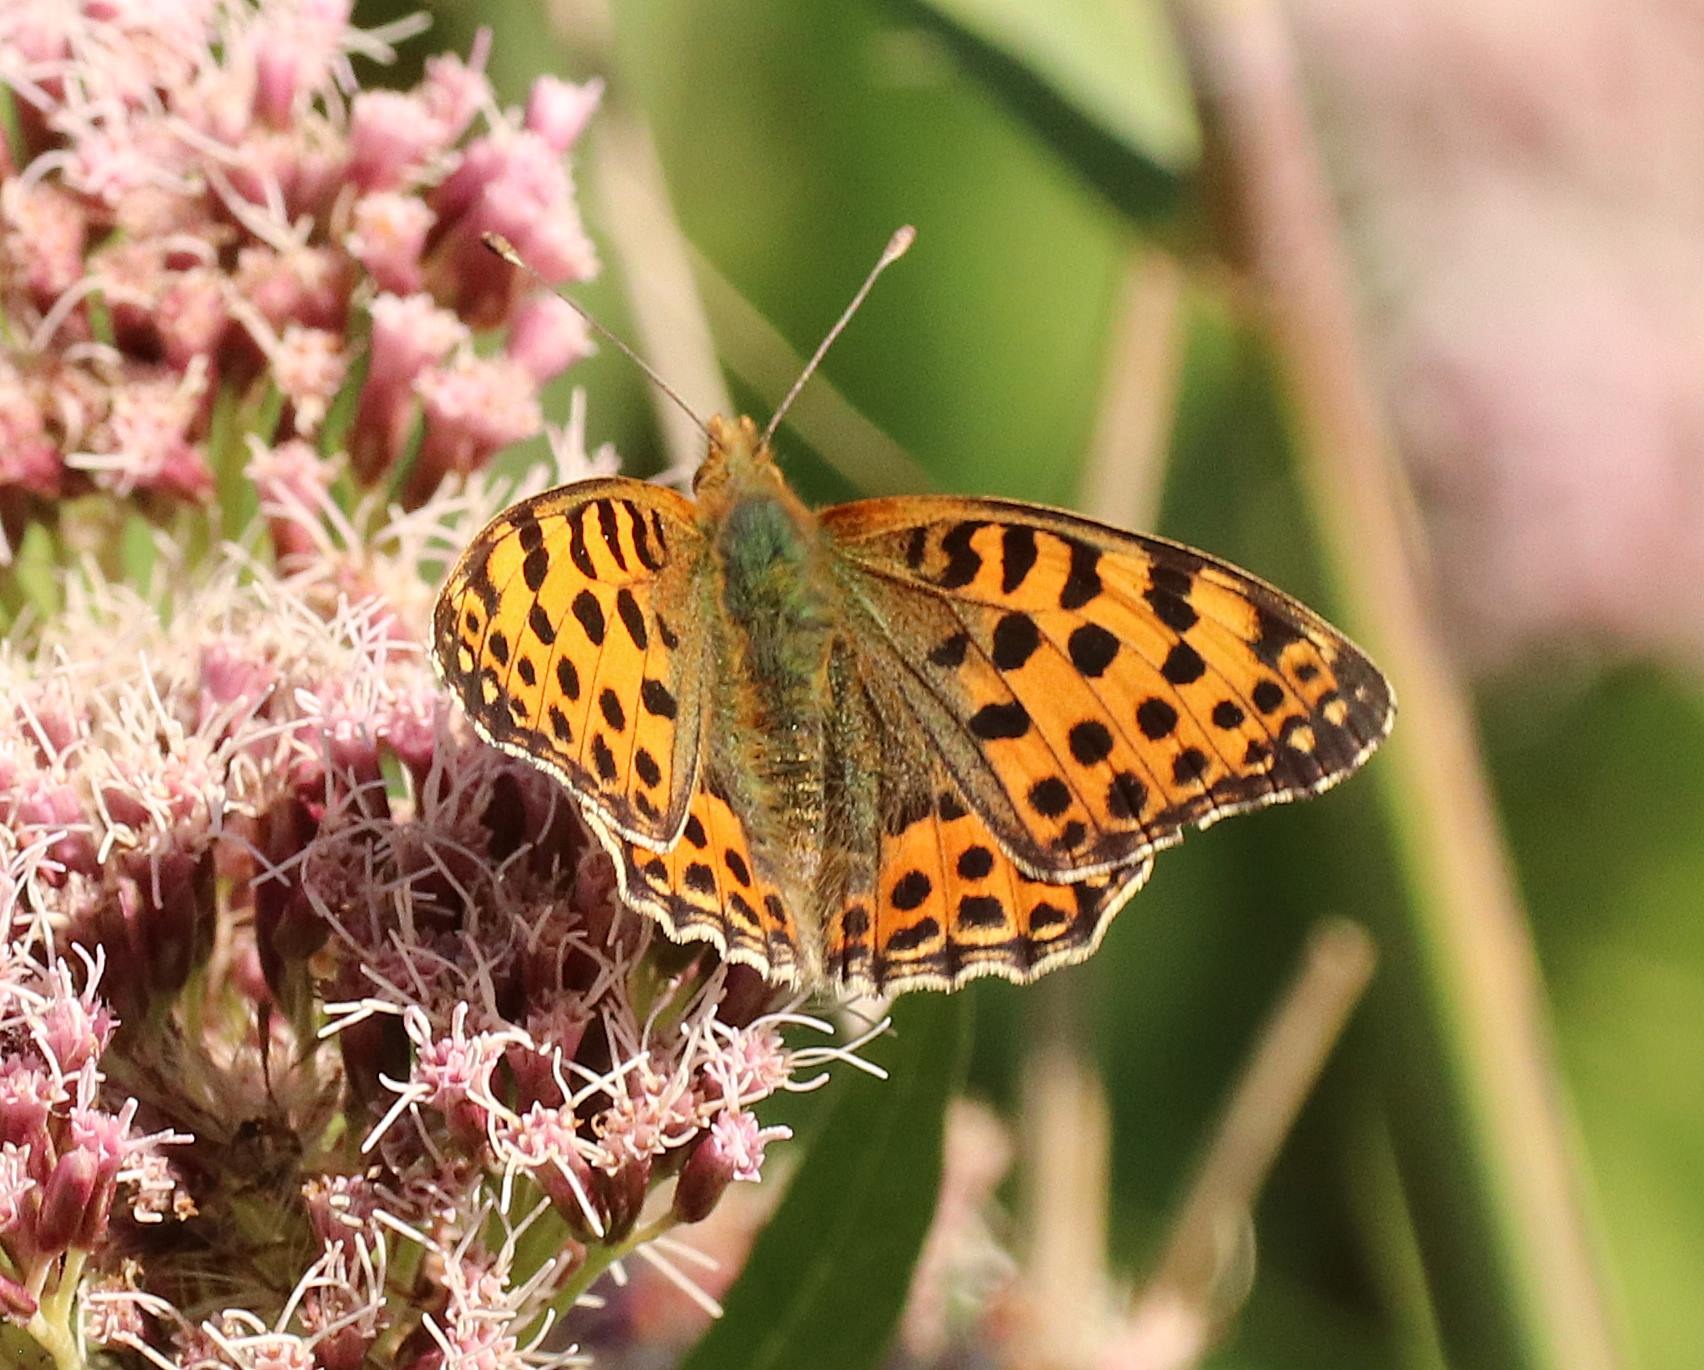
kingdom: Animalia
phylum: Arthropoda
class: Insecta
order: Lepidoptera
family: Nymphalidae
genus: Issoria
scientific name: Issoria lathonia
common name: Storplettet perlemorsommerfugl
